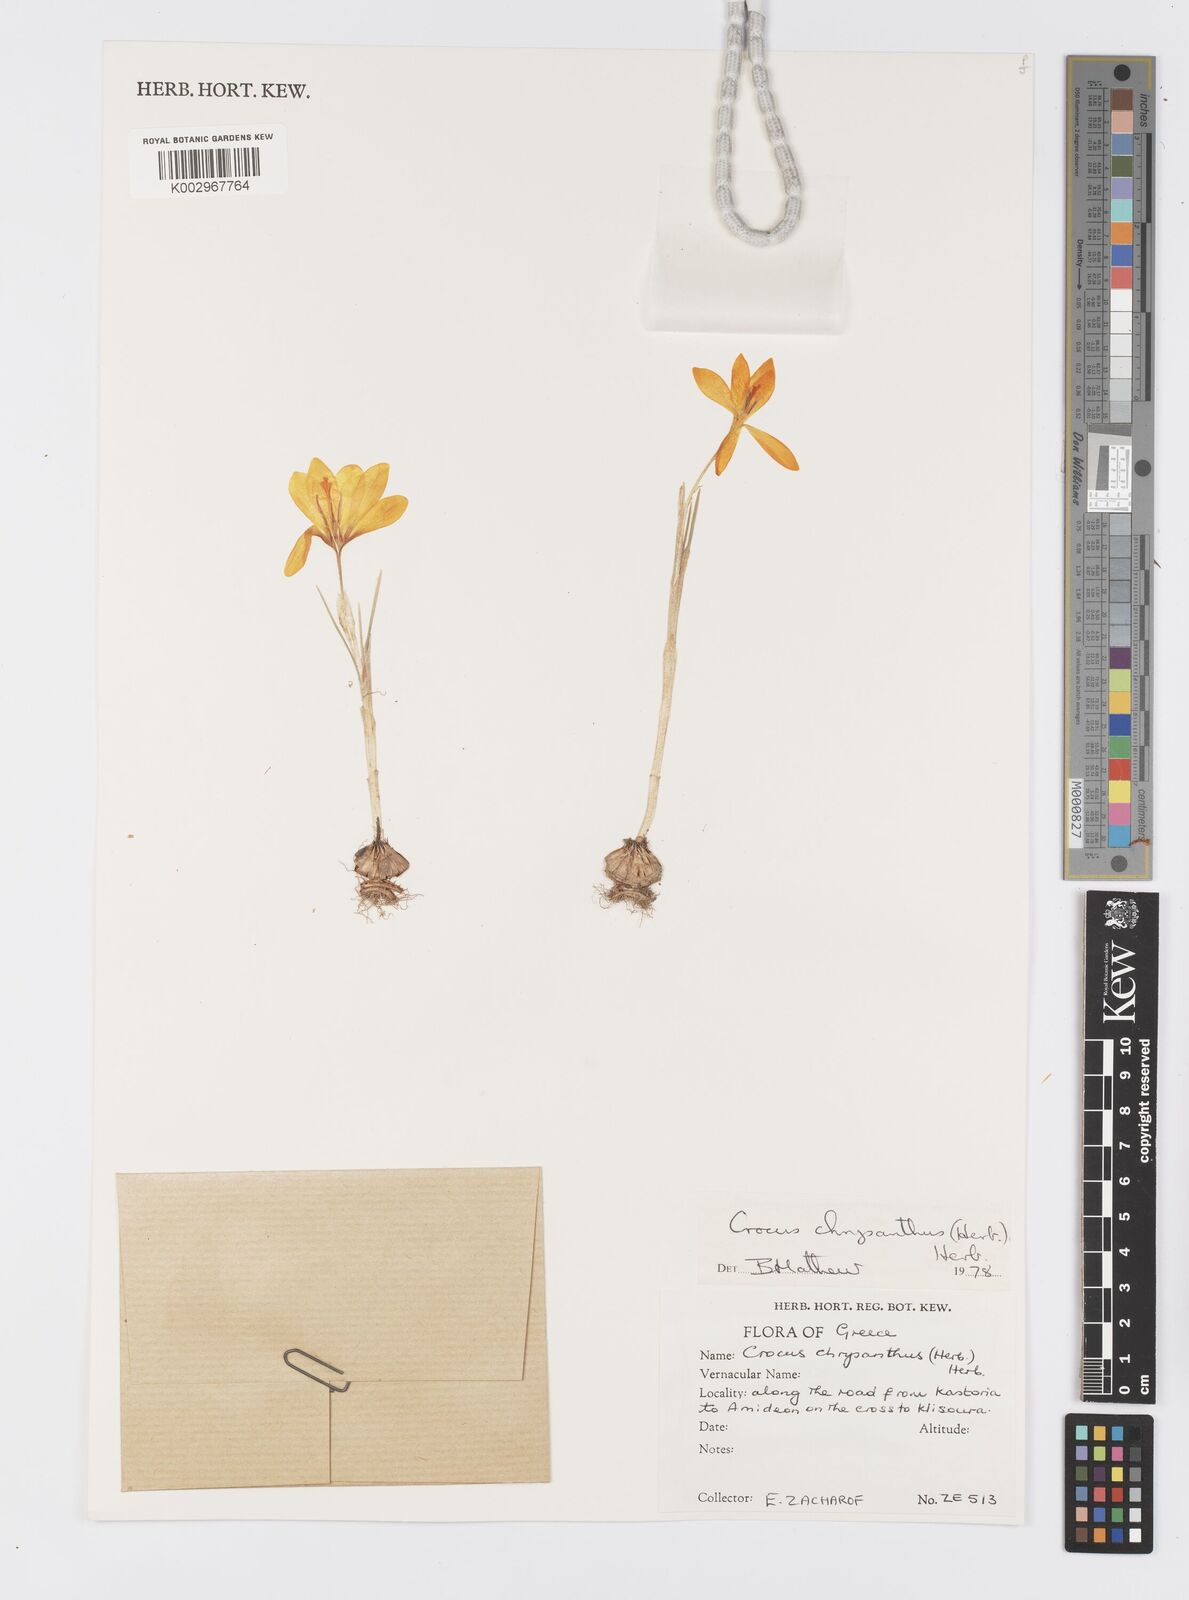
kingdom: Plantae
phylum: Tracheophyta
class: Liliopsida
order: Asparagales
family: Iridaceae
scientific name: Iridaceae
